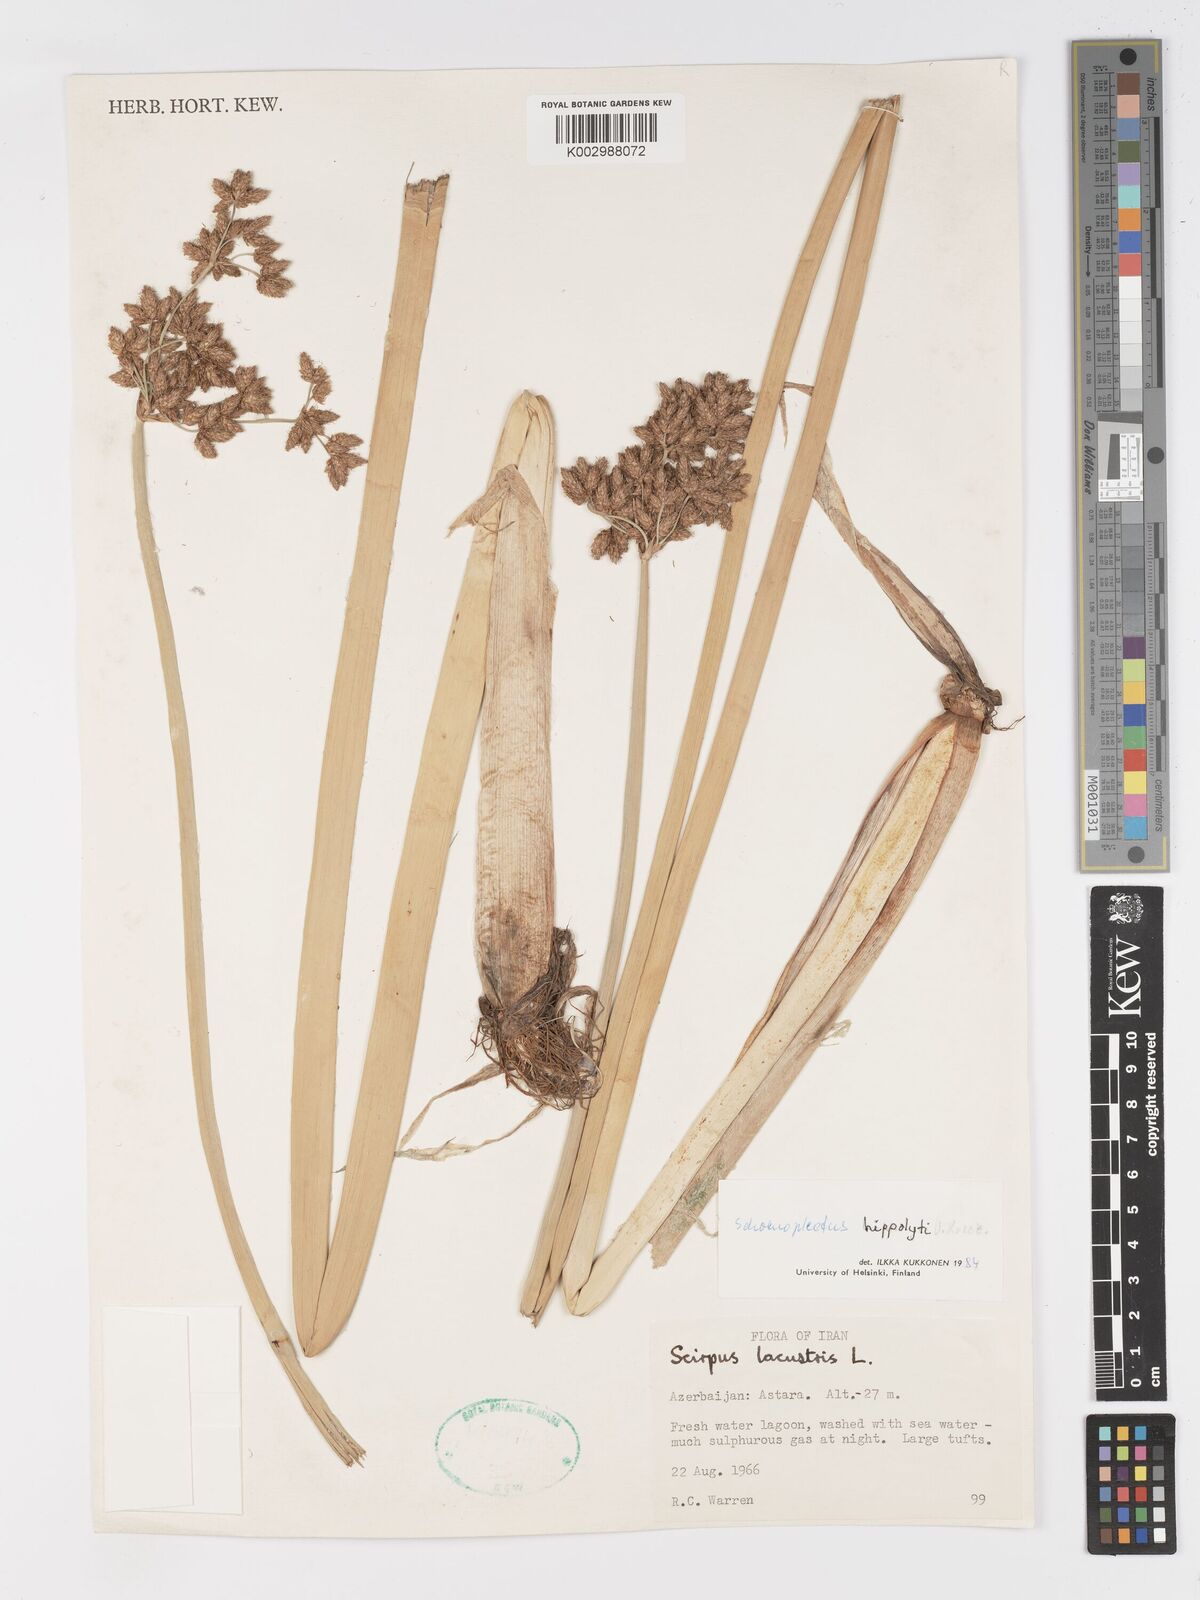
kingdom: Plantae
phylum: Tracheophyta
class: Liliopsida
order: Poales
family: Cyperaceae
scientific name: Cyperaceae
